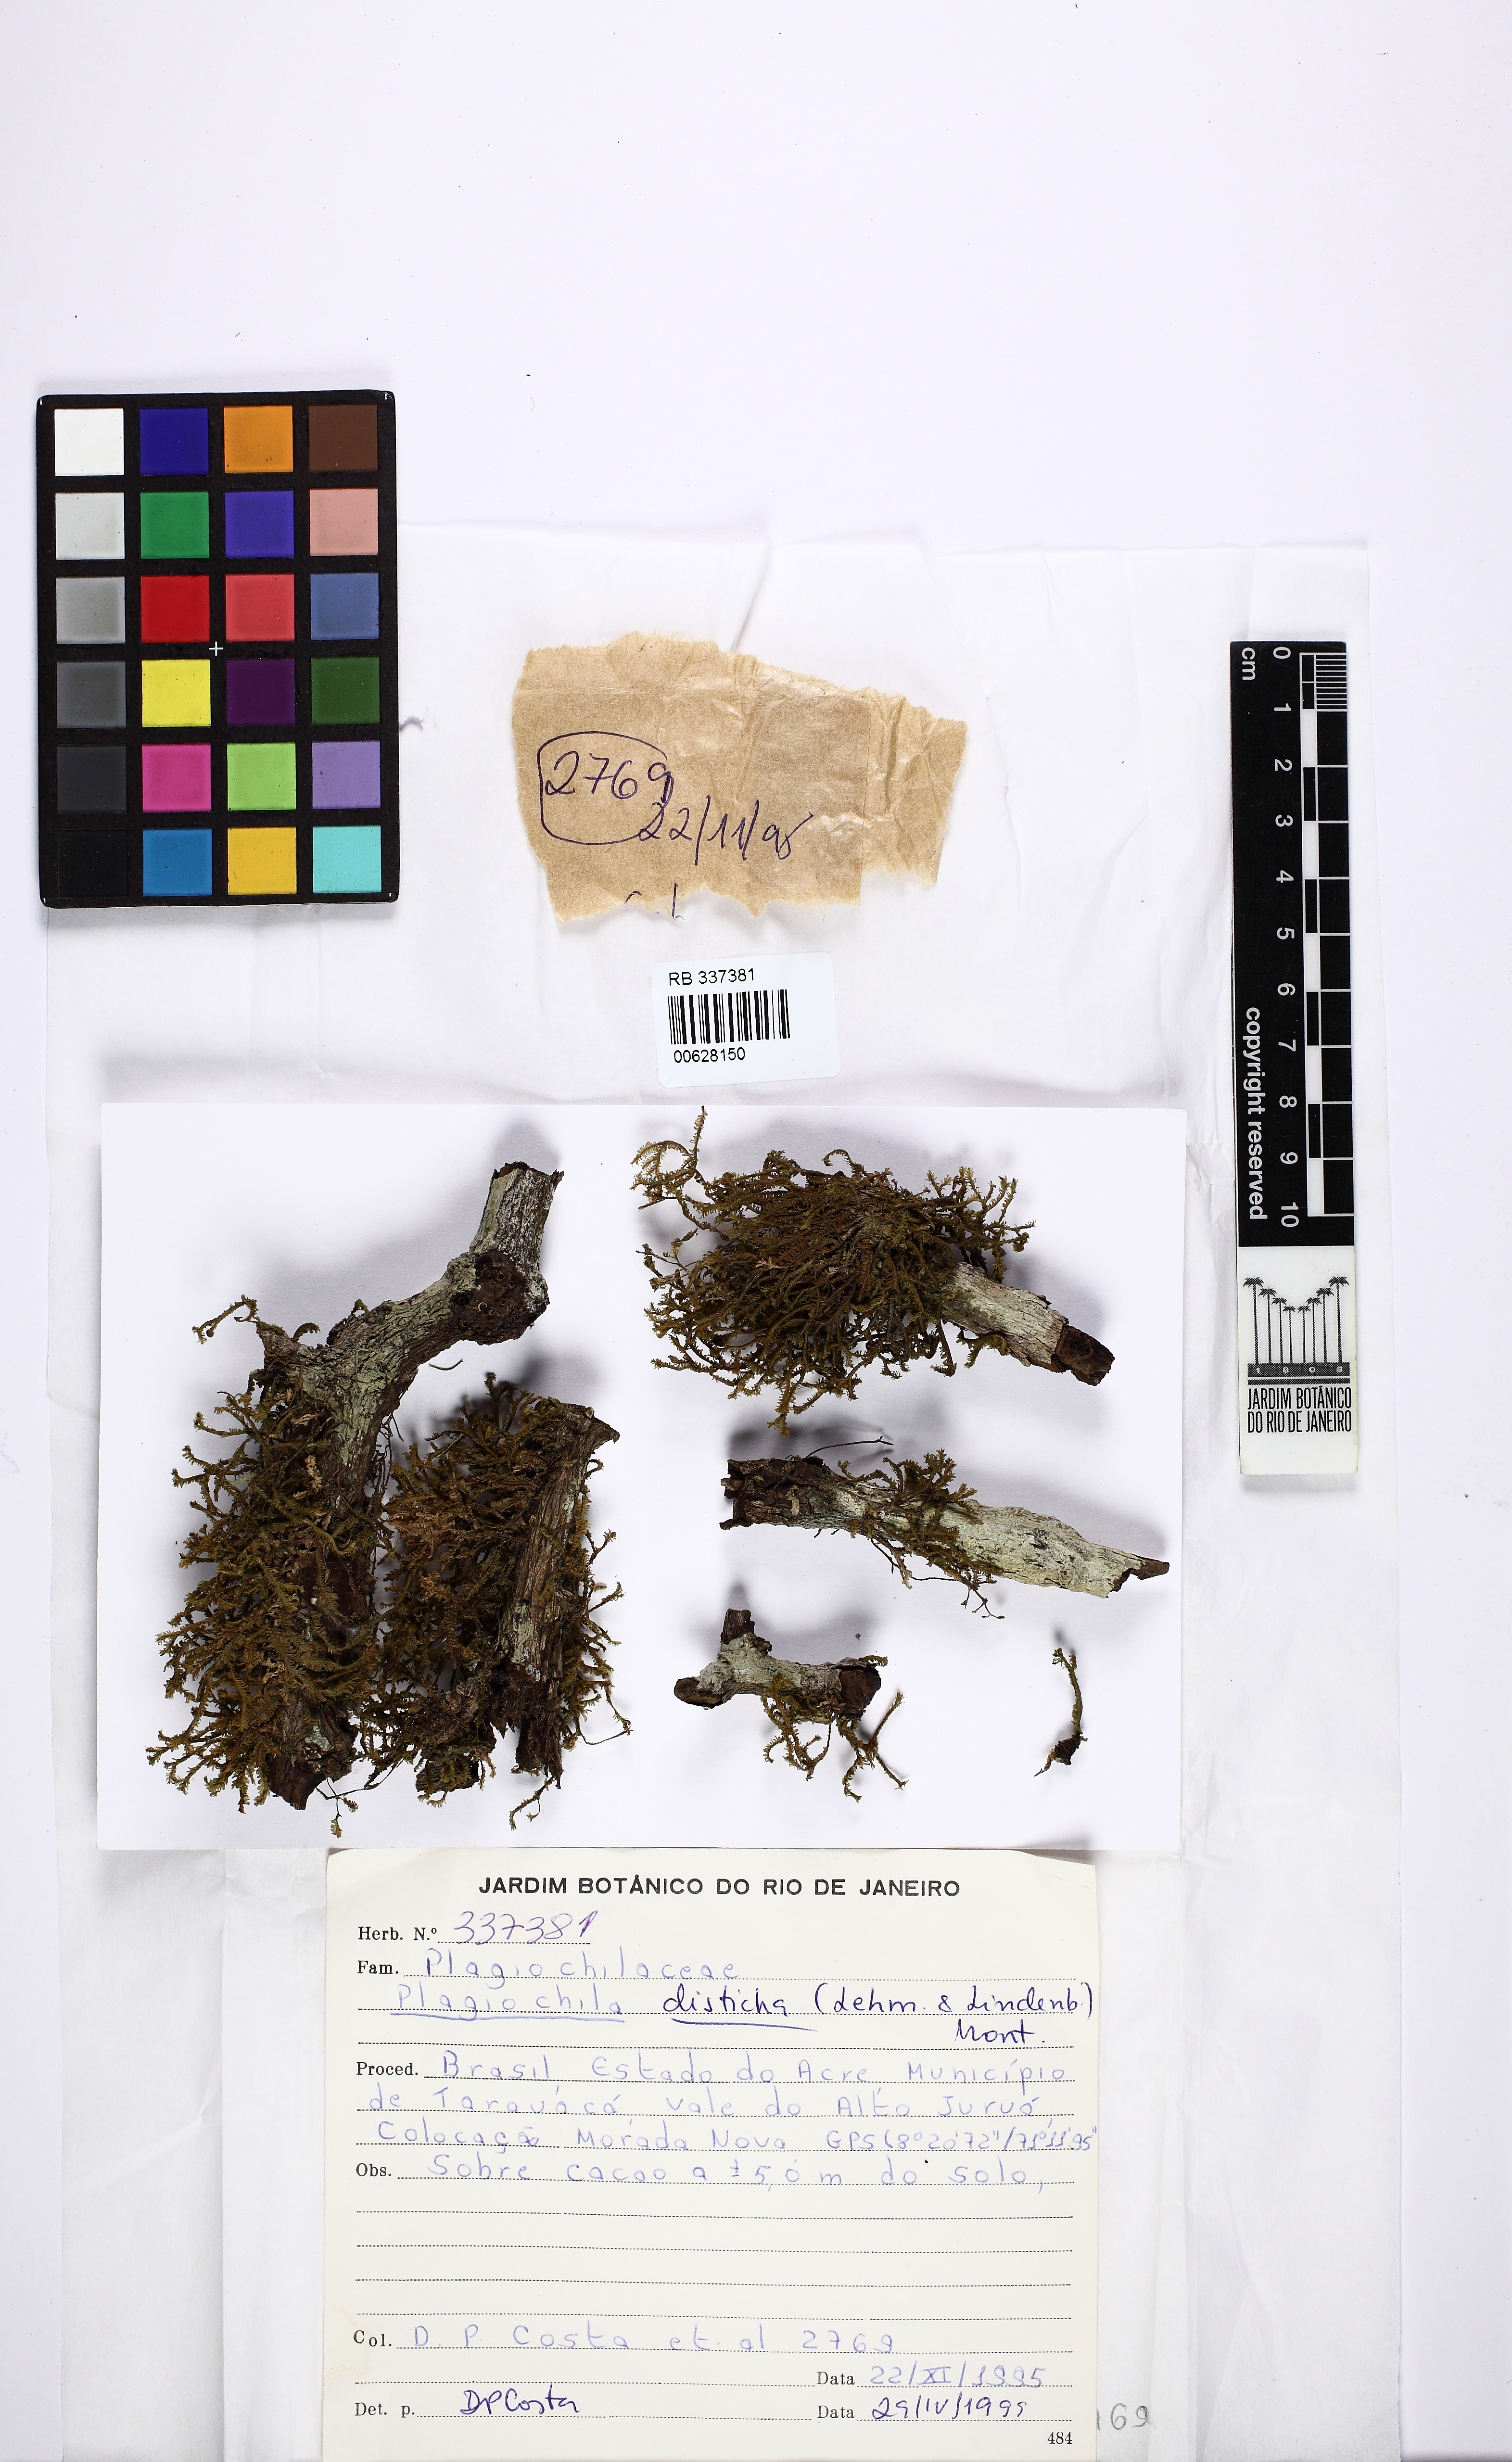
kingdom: Plantae
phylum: Marchantiophyta
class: Jungermanniopsida
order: Jungermanniales
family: Plagiochilaceae
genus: Plagiochila
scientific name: Plagiochila disticha
